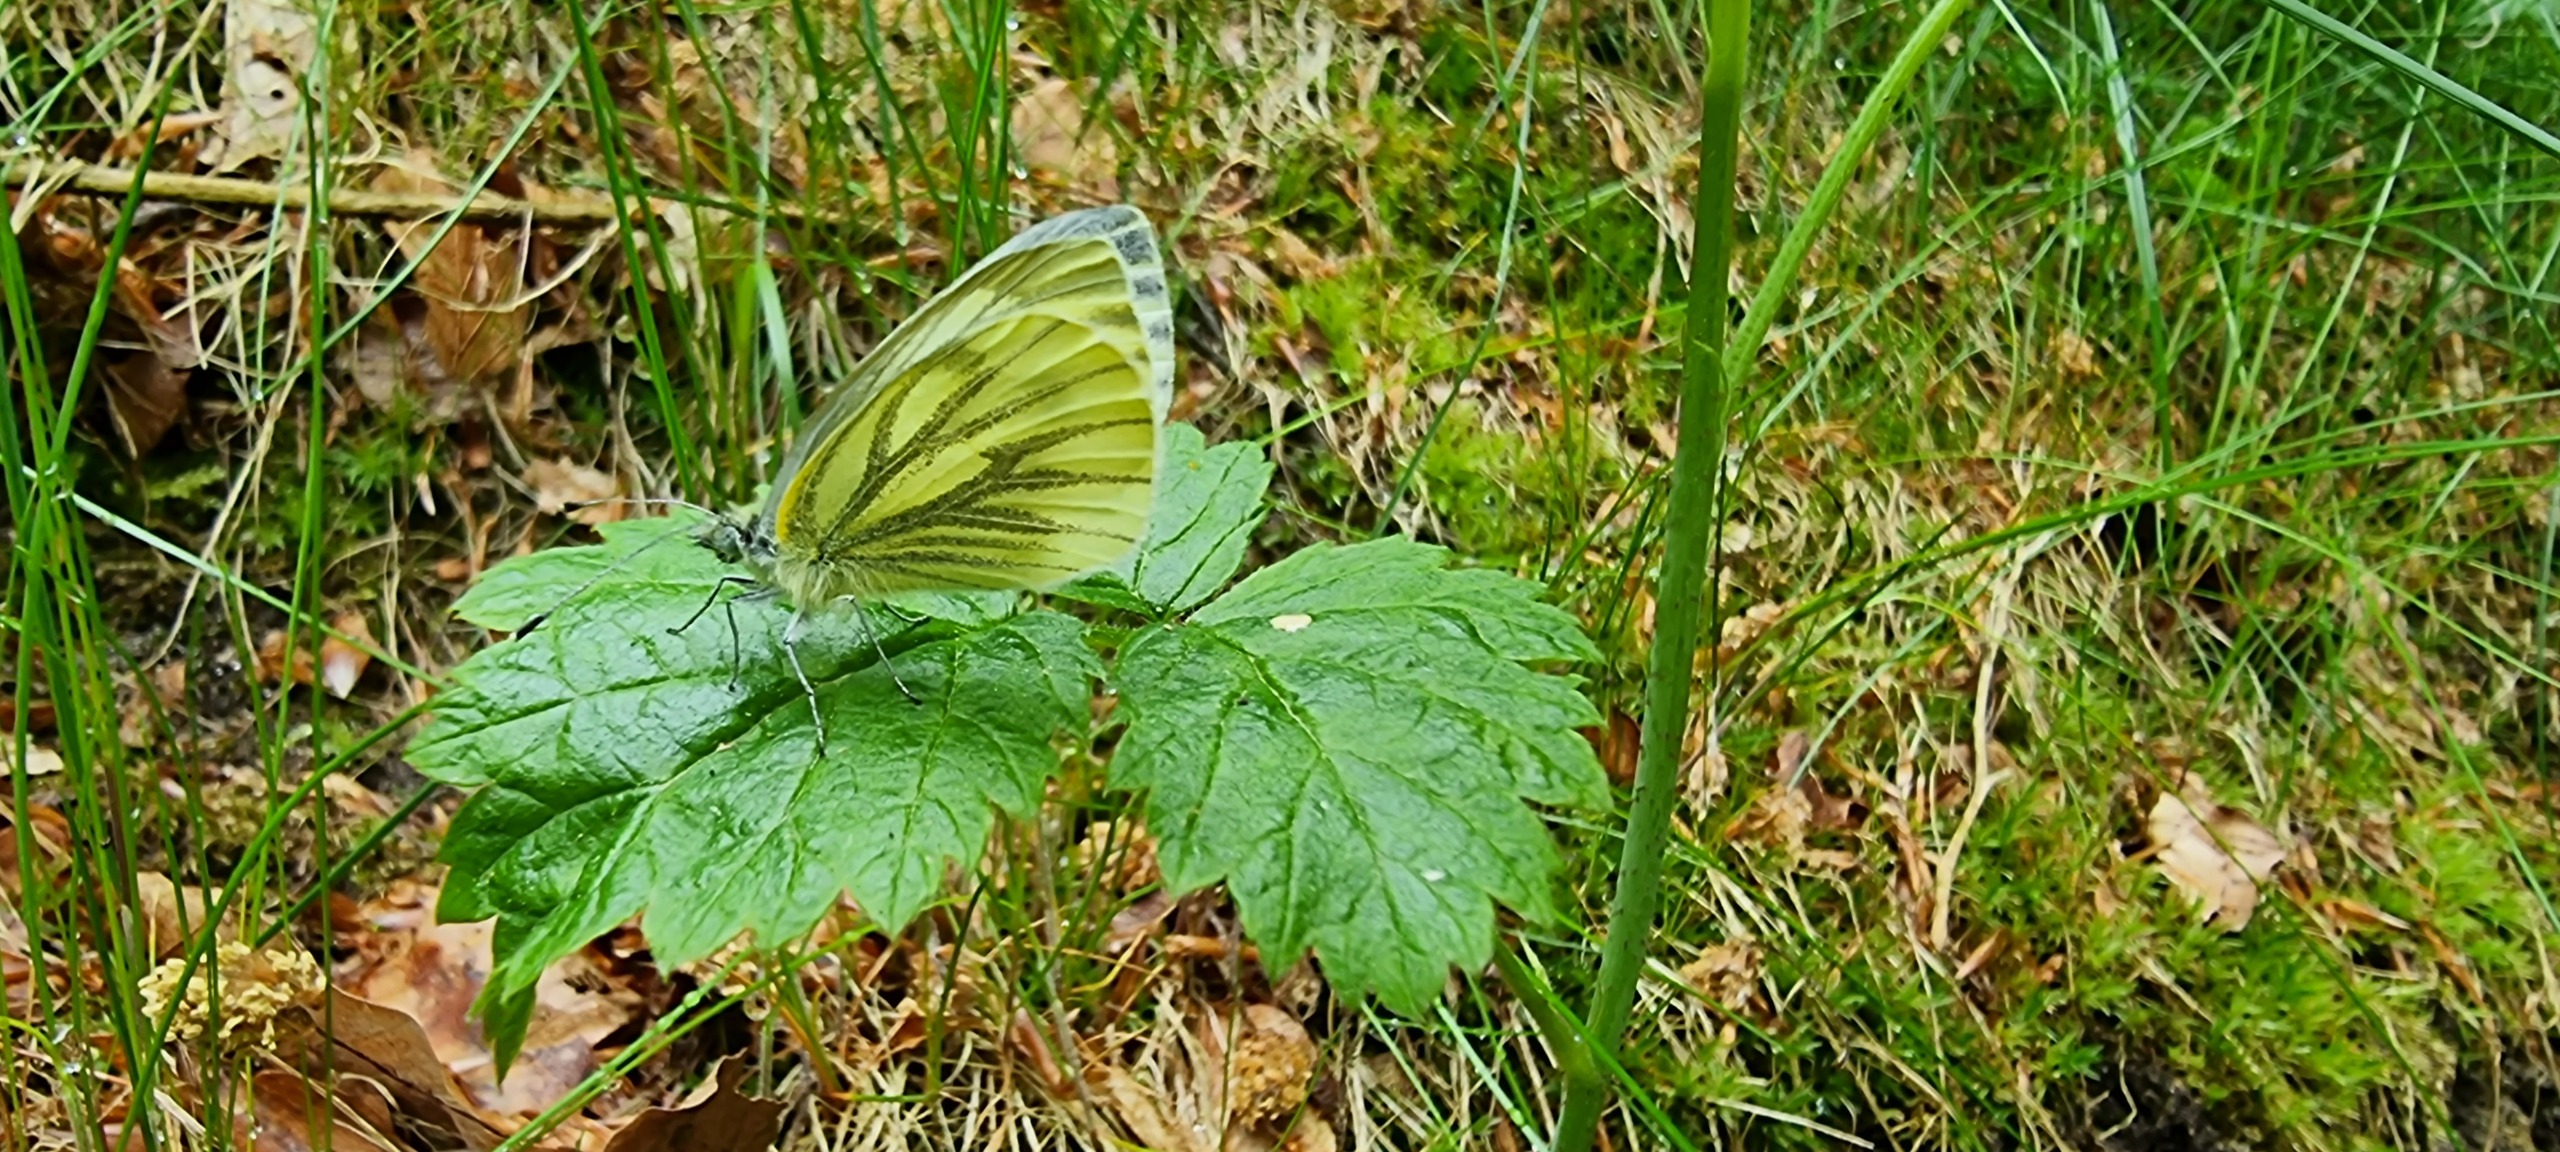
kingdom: Animalia
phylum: Arthropoda
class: Insecta
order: Lepidoptera
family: Pieridae
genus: Pieris
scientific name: Pieris napi
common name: Grønåret kålsommerfugl
